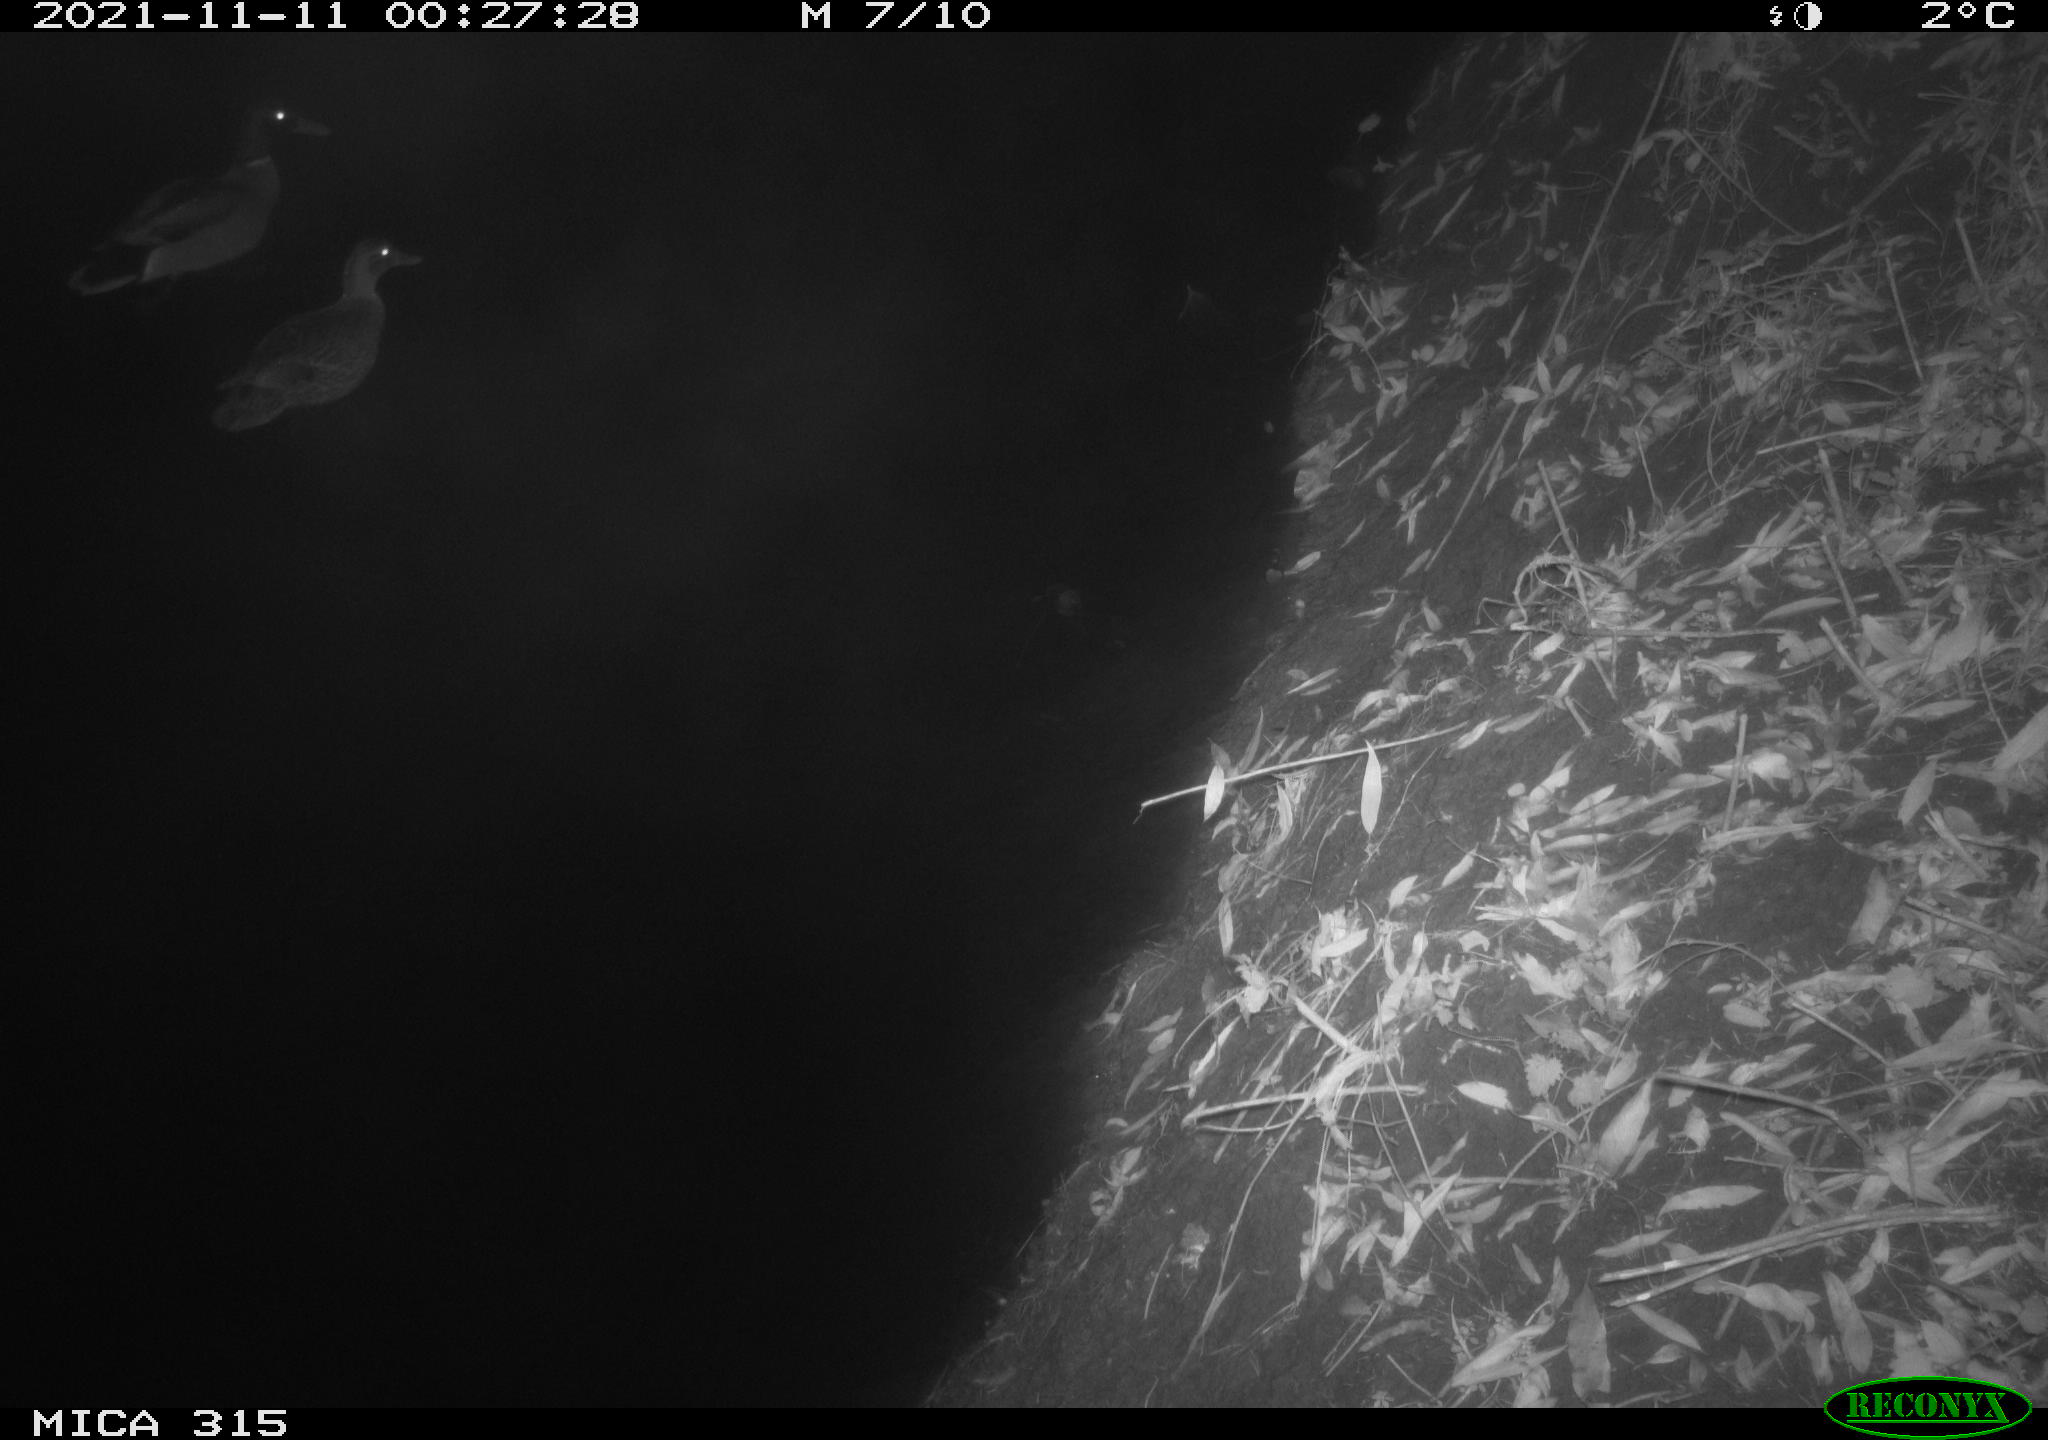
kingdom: Animalia
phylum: Chordata
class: Aves
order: Anseriformes
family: Anatidae
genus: Anas
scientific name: Anas platyrhynchos
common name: Mallard
